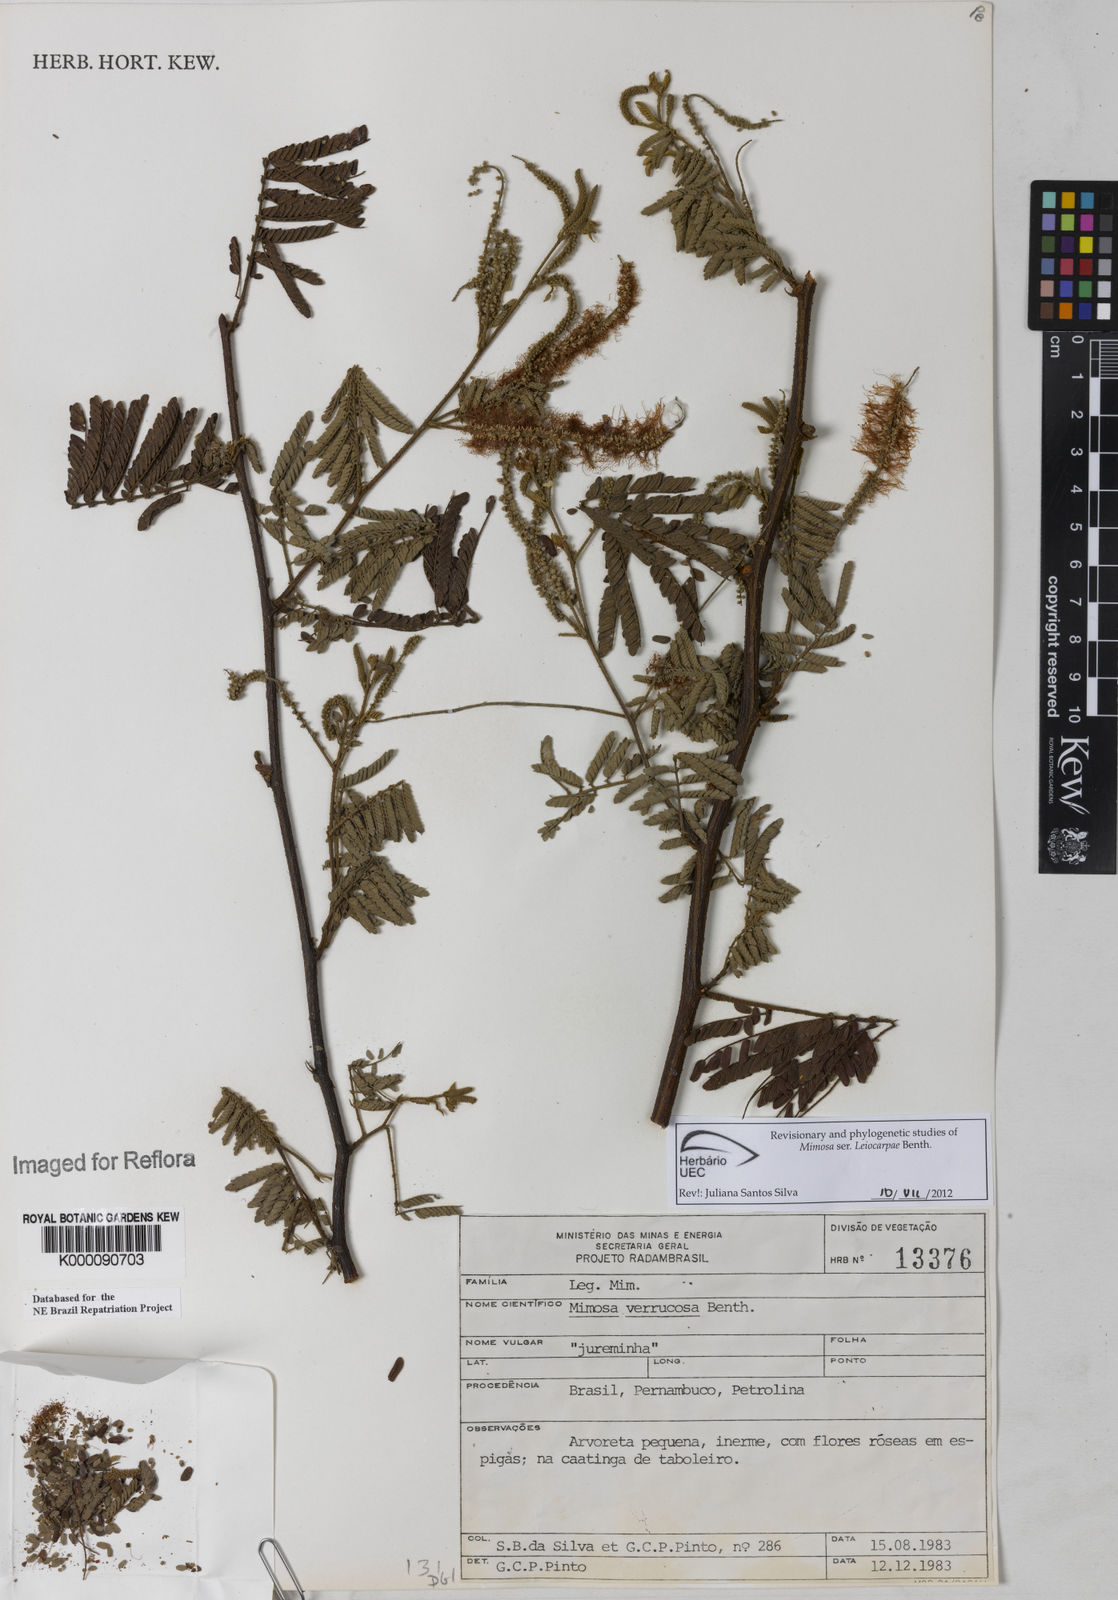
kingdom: Plantae
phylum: Tracheophyta
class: Magnoliopsida
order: Fabales
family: Fabaceae
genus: Mimosa
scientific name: Mimosa verrucosa
